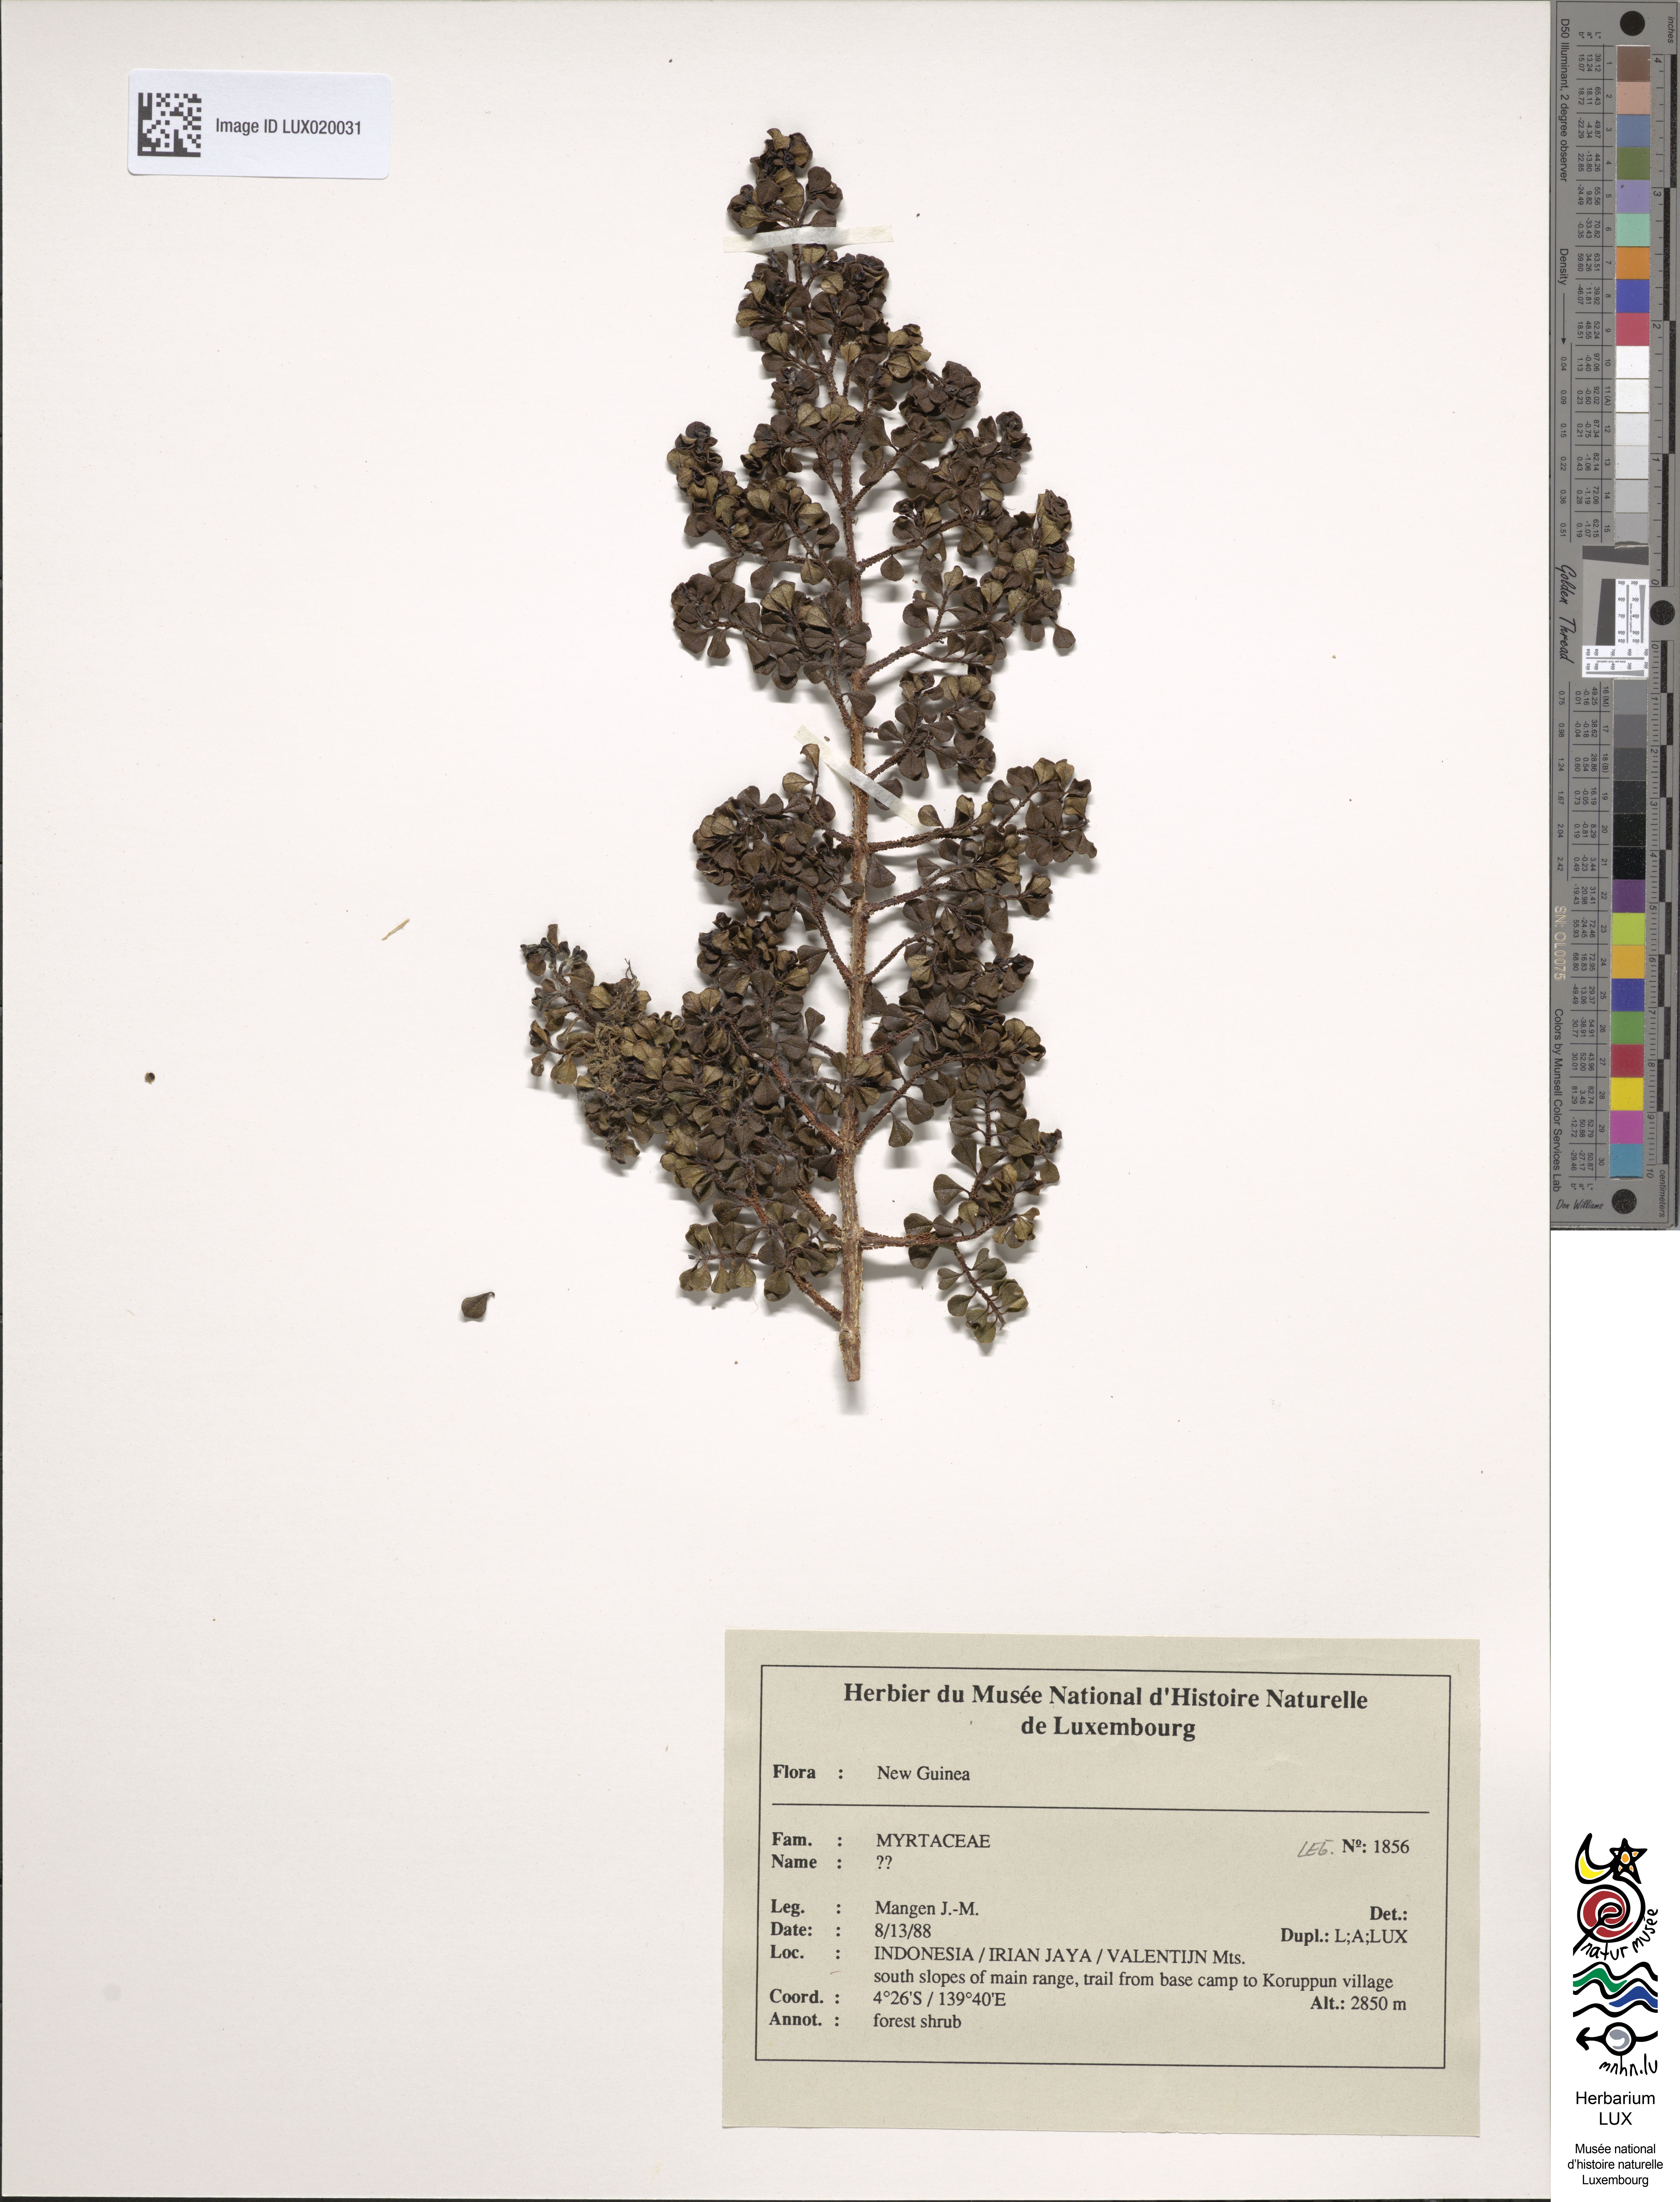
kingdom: Plantae
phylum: Tracheophyta
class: Magnoliopsida
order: Myrtales
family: Myrtaceae
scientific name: Myrtaceae
